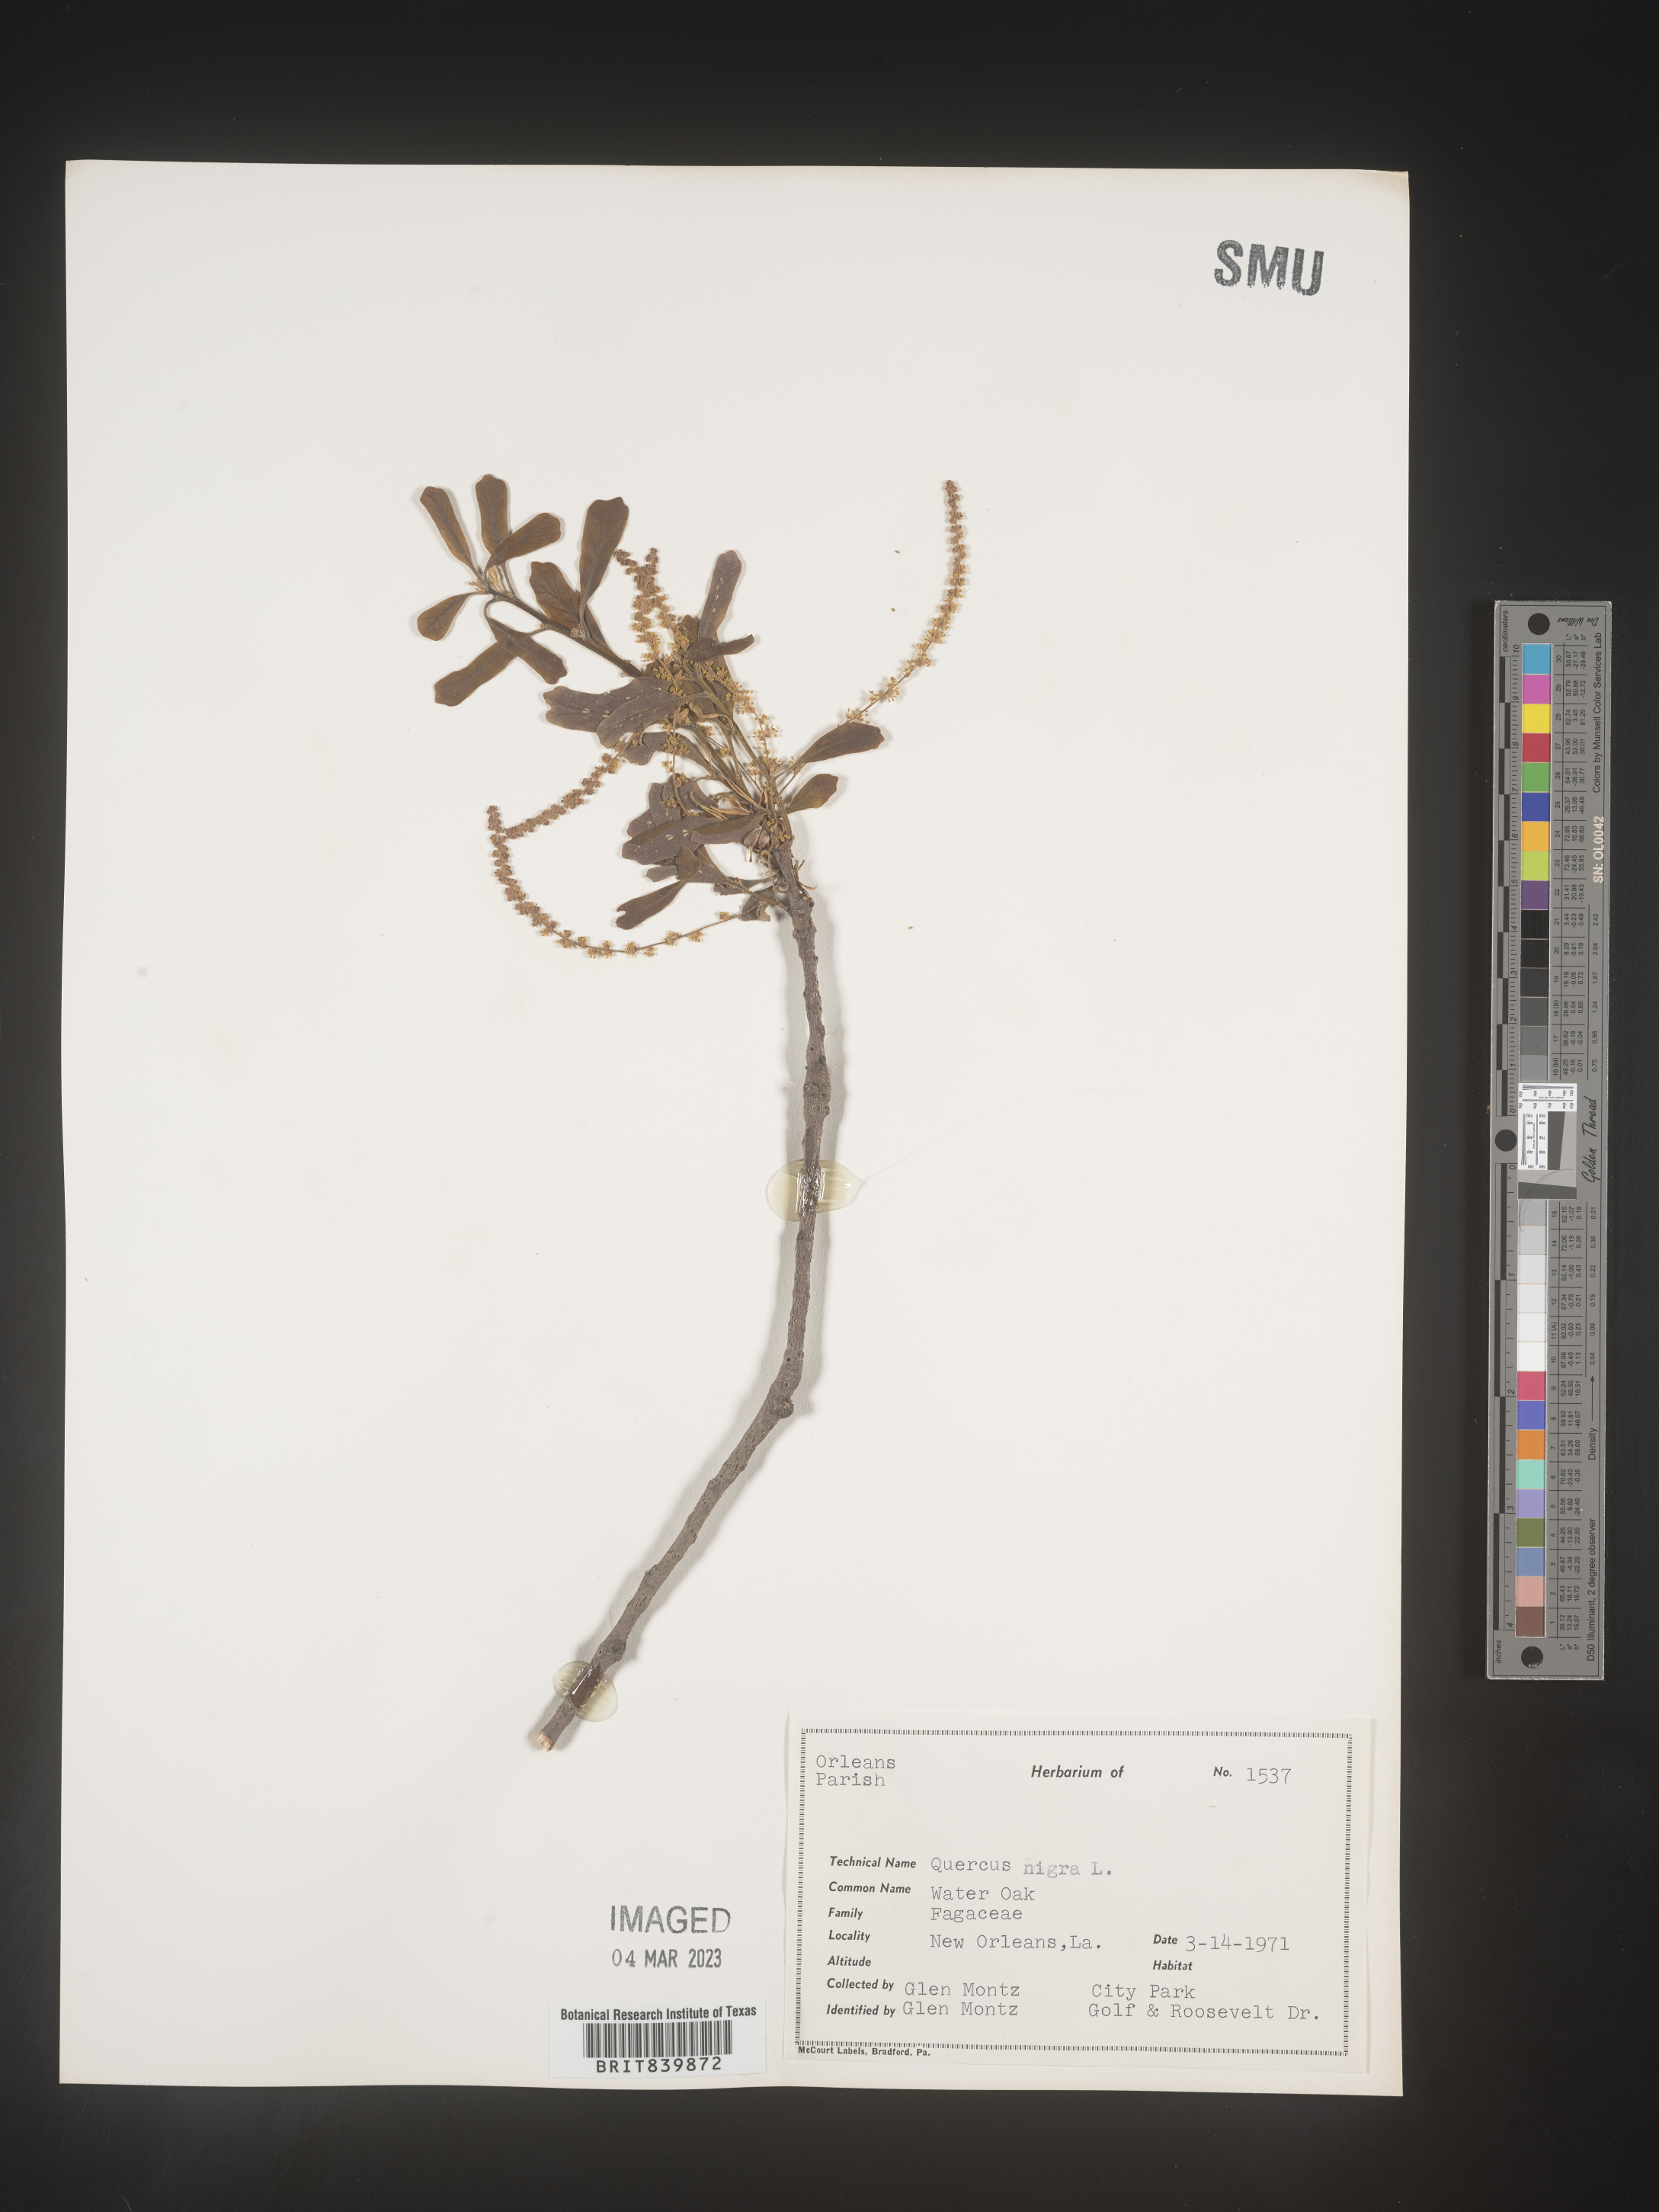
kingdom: Plantae
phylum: Tracheophyta
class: Magnoliopsida
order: Fagales
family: Fagaceae
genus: Quercus
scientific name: Quercus nigra
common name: Water oak
